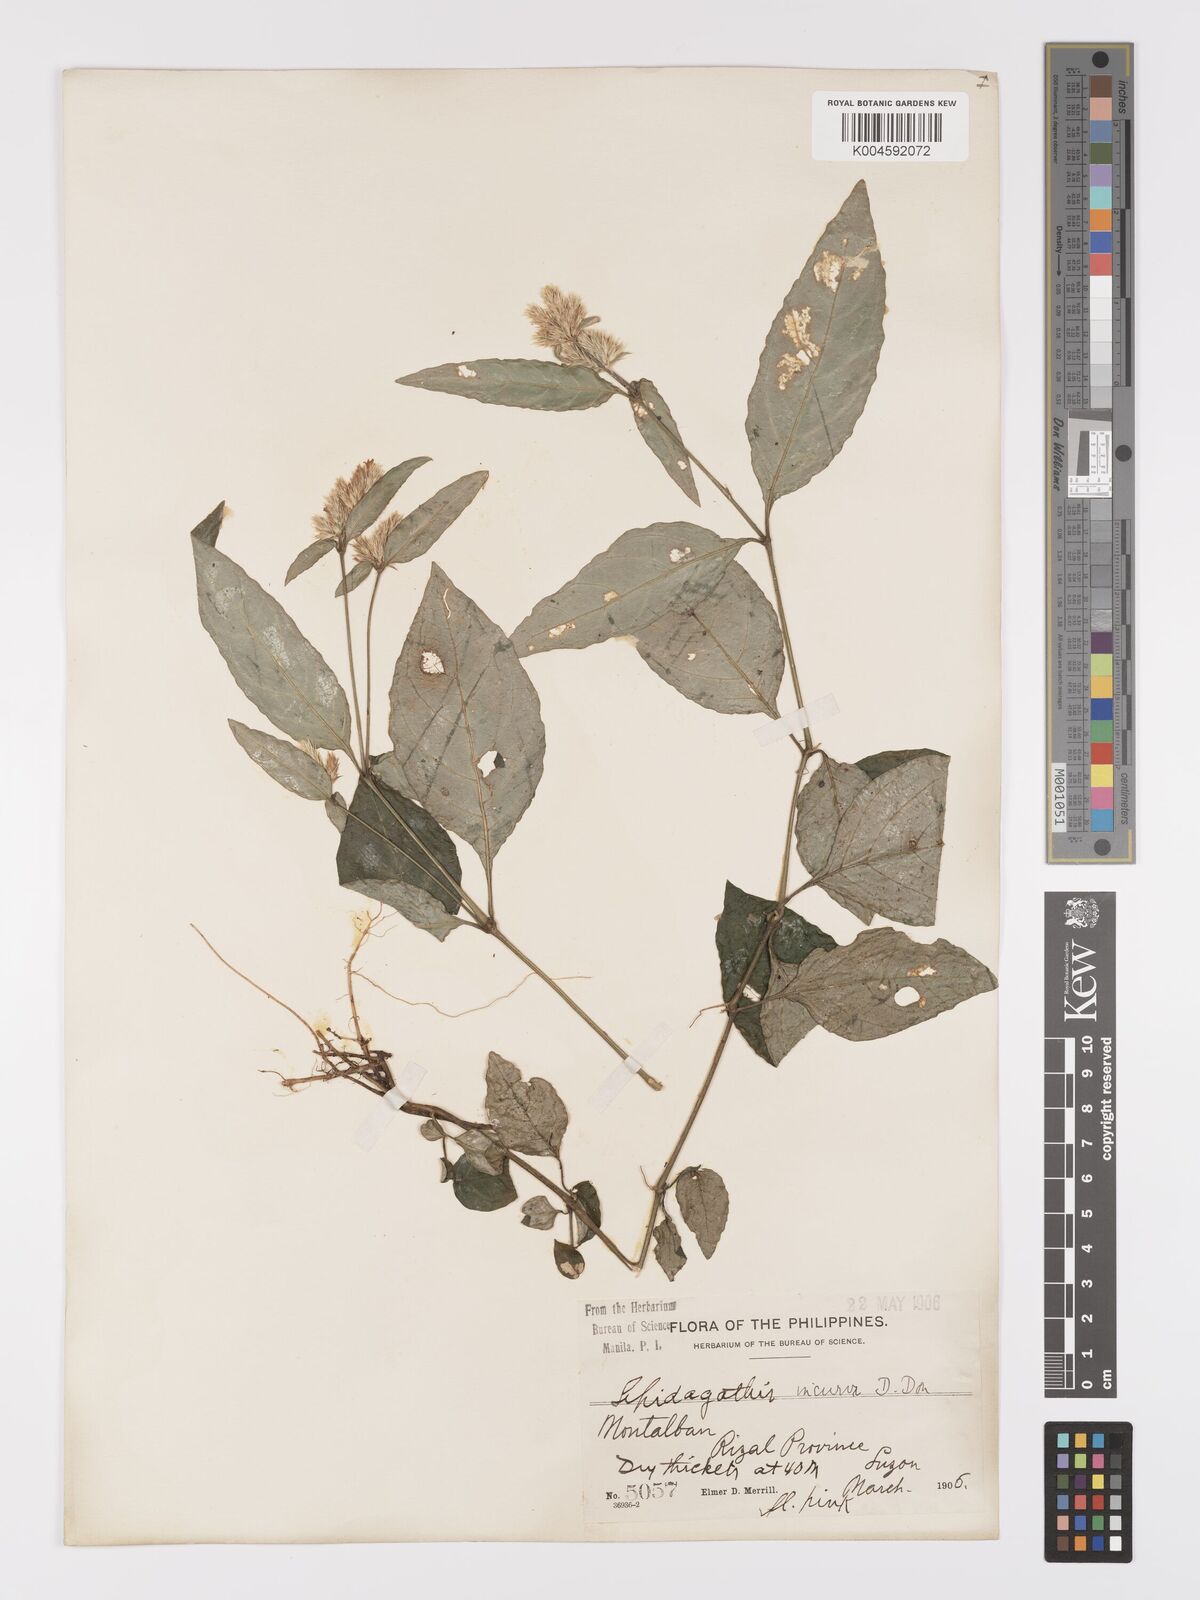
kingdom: Plantae
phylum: Tracheophyta
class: Magnoliopsida
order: Lamiales
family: Acanthaceae
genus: Lepidagathis
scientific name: Lepidagathis incurva
